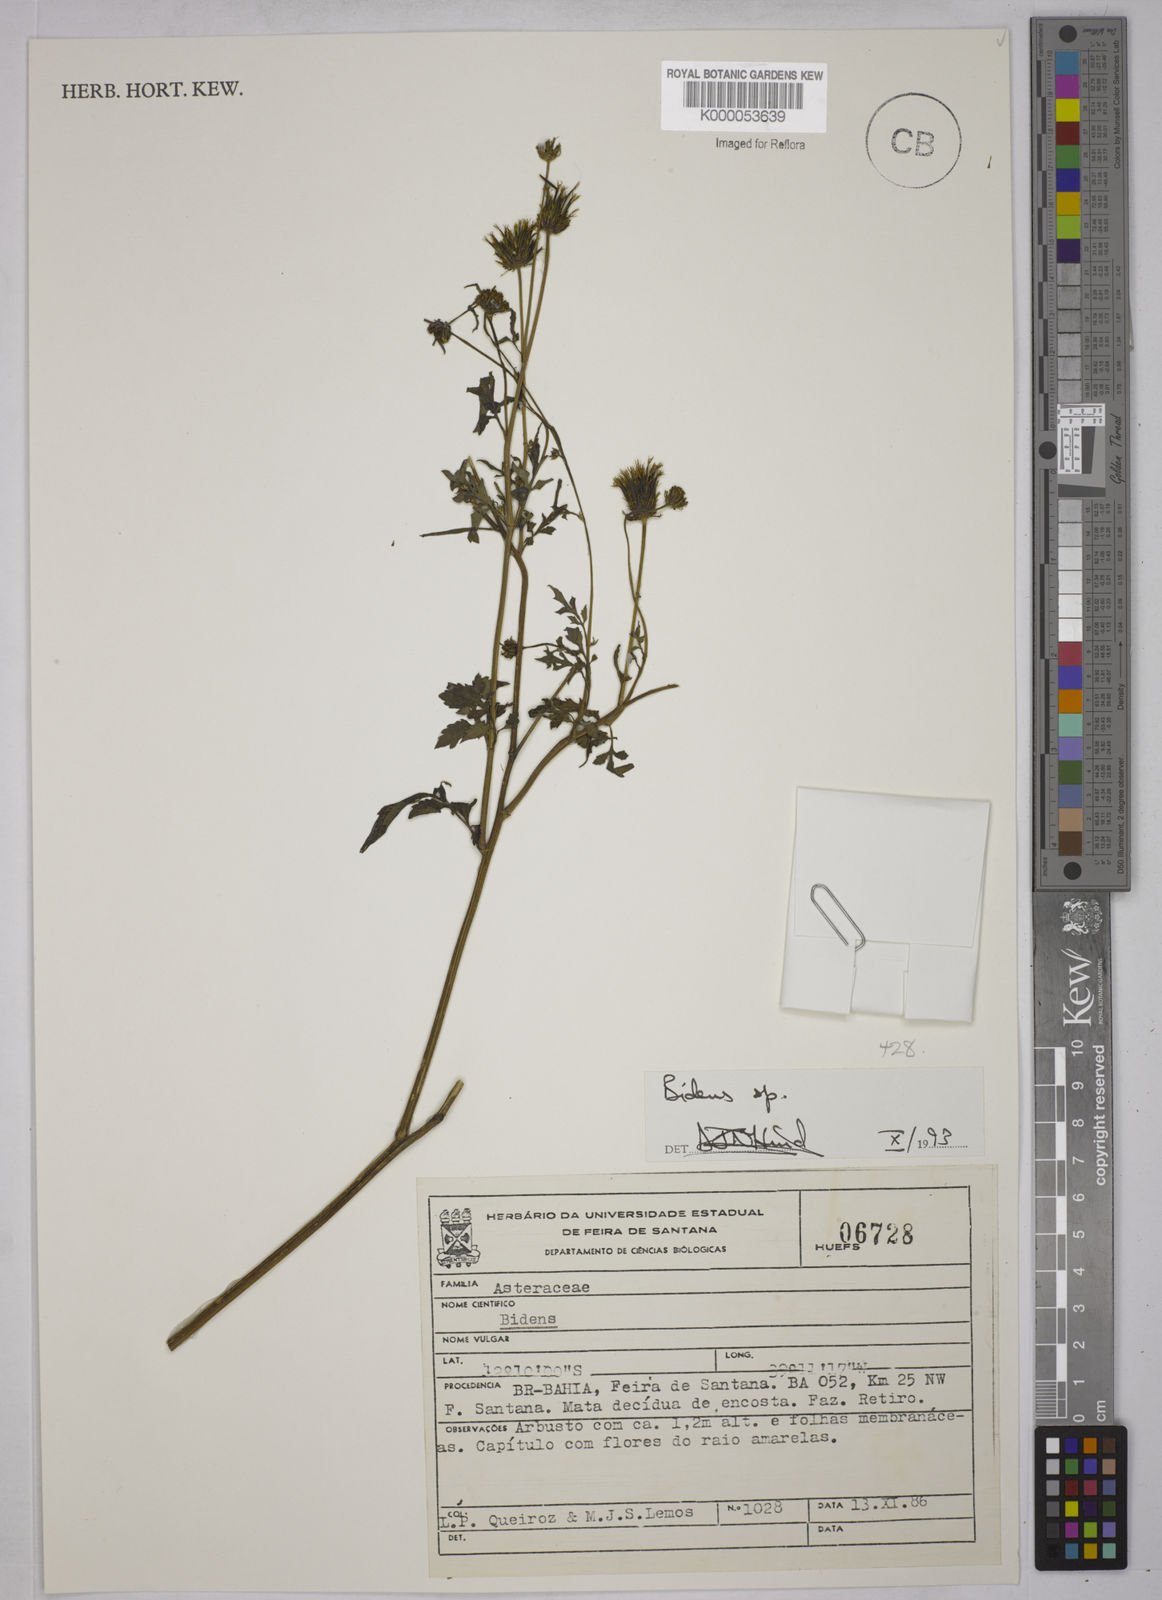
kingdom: Plantae
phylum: Tracheophyta
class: Magnoliopsida
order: Asterales
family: Asteraceae
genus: Bidens
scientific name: Bidens
